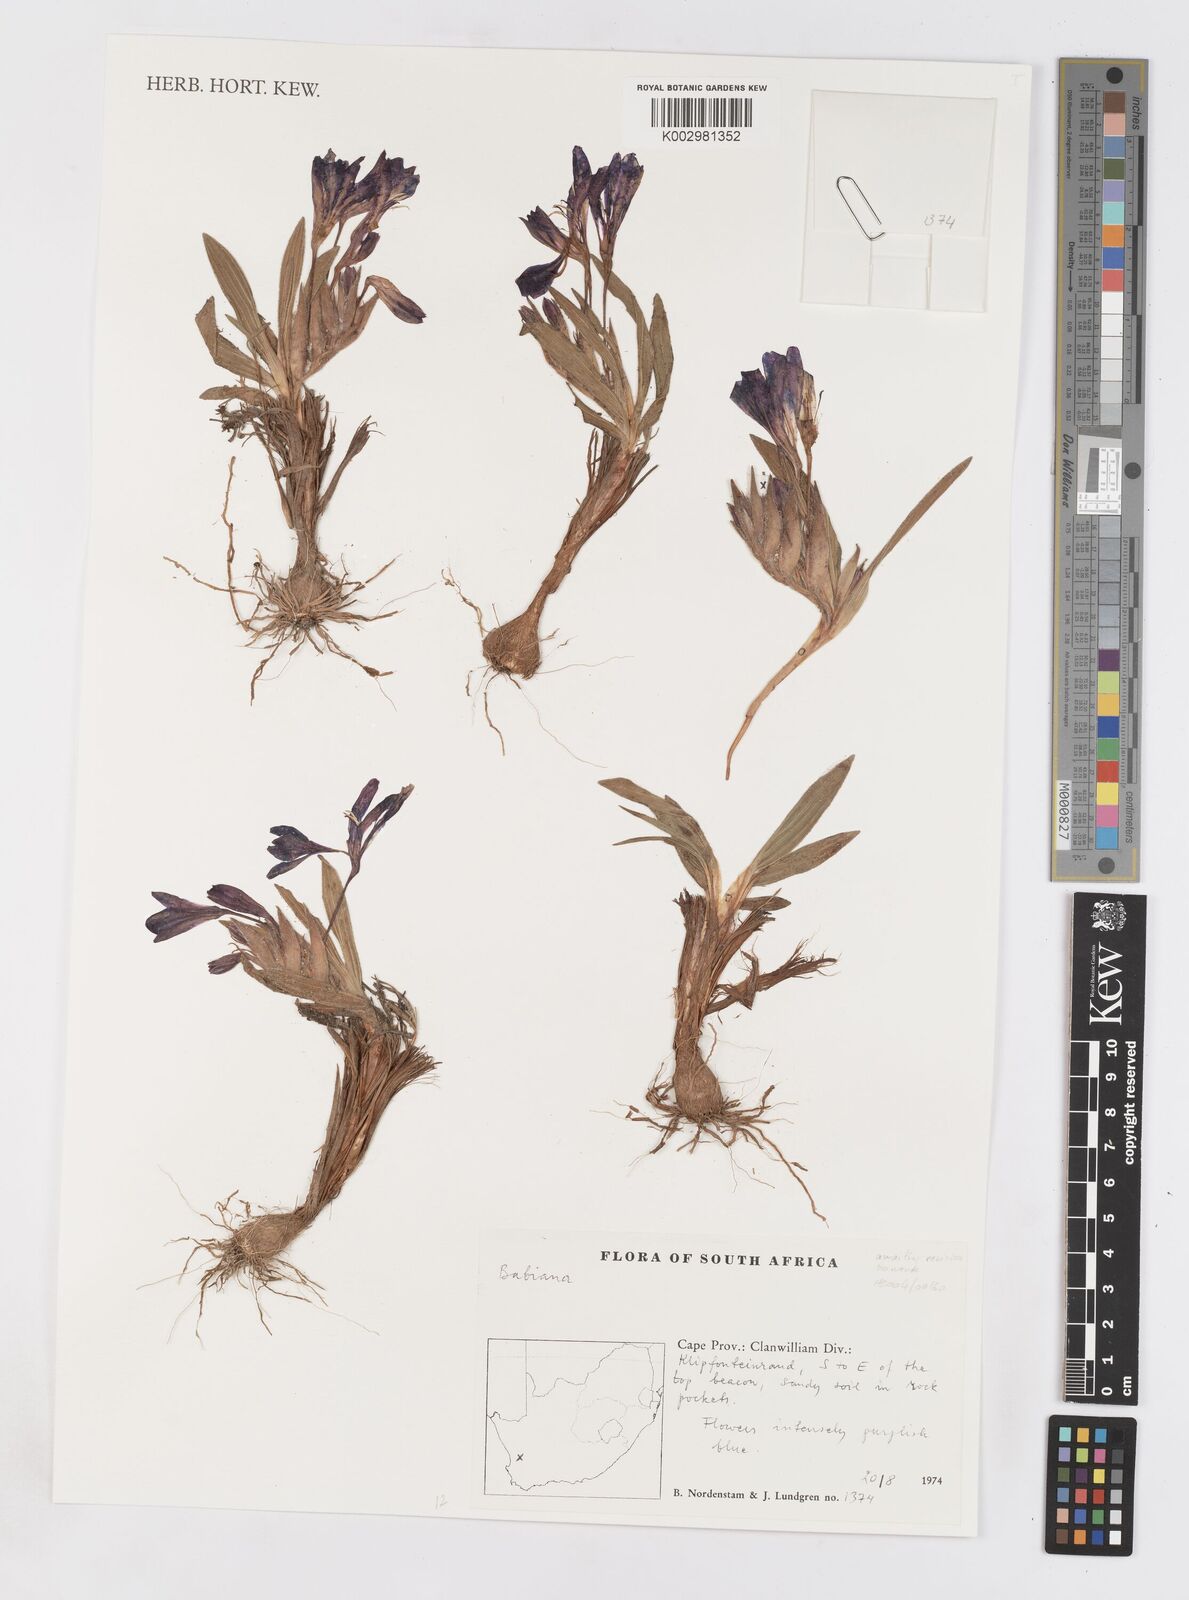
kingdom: Plantae
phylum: Tracheophyta
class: Liliopsida
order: Asparagales
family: Iridaceae
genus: Babiana
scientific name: Babiana
